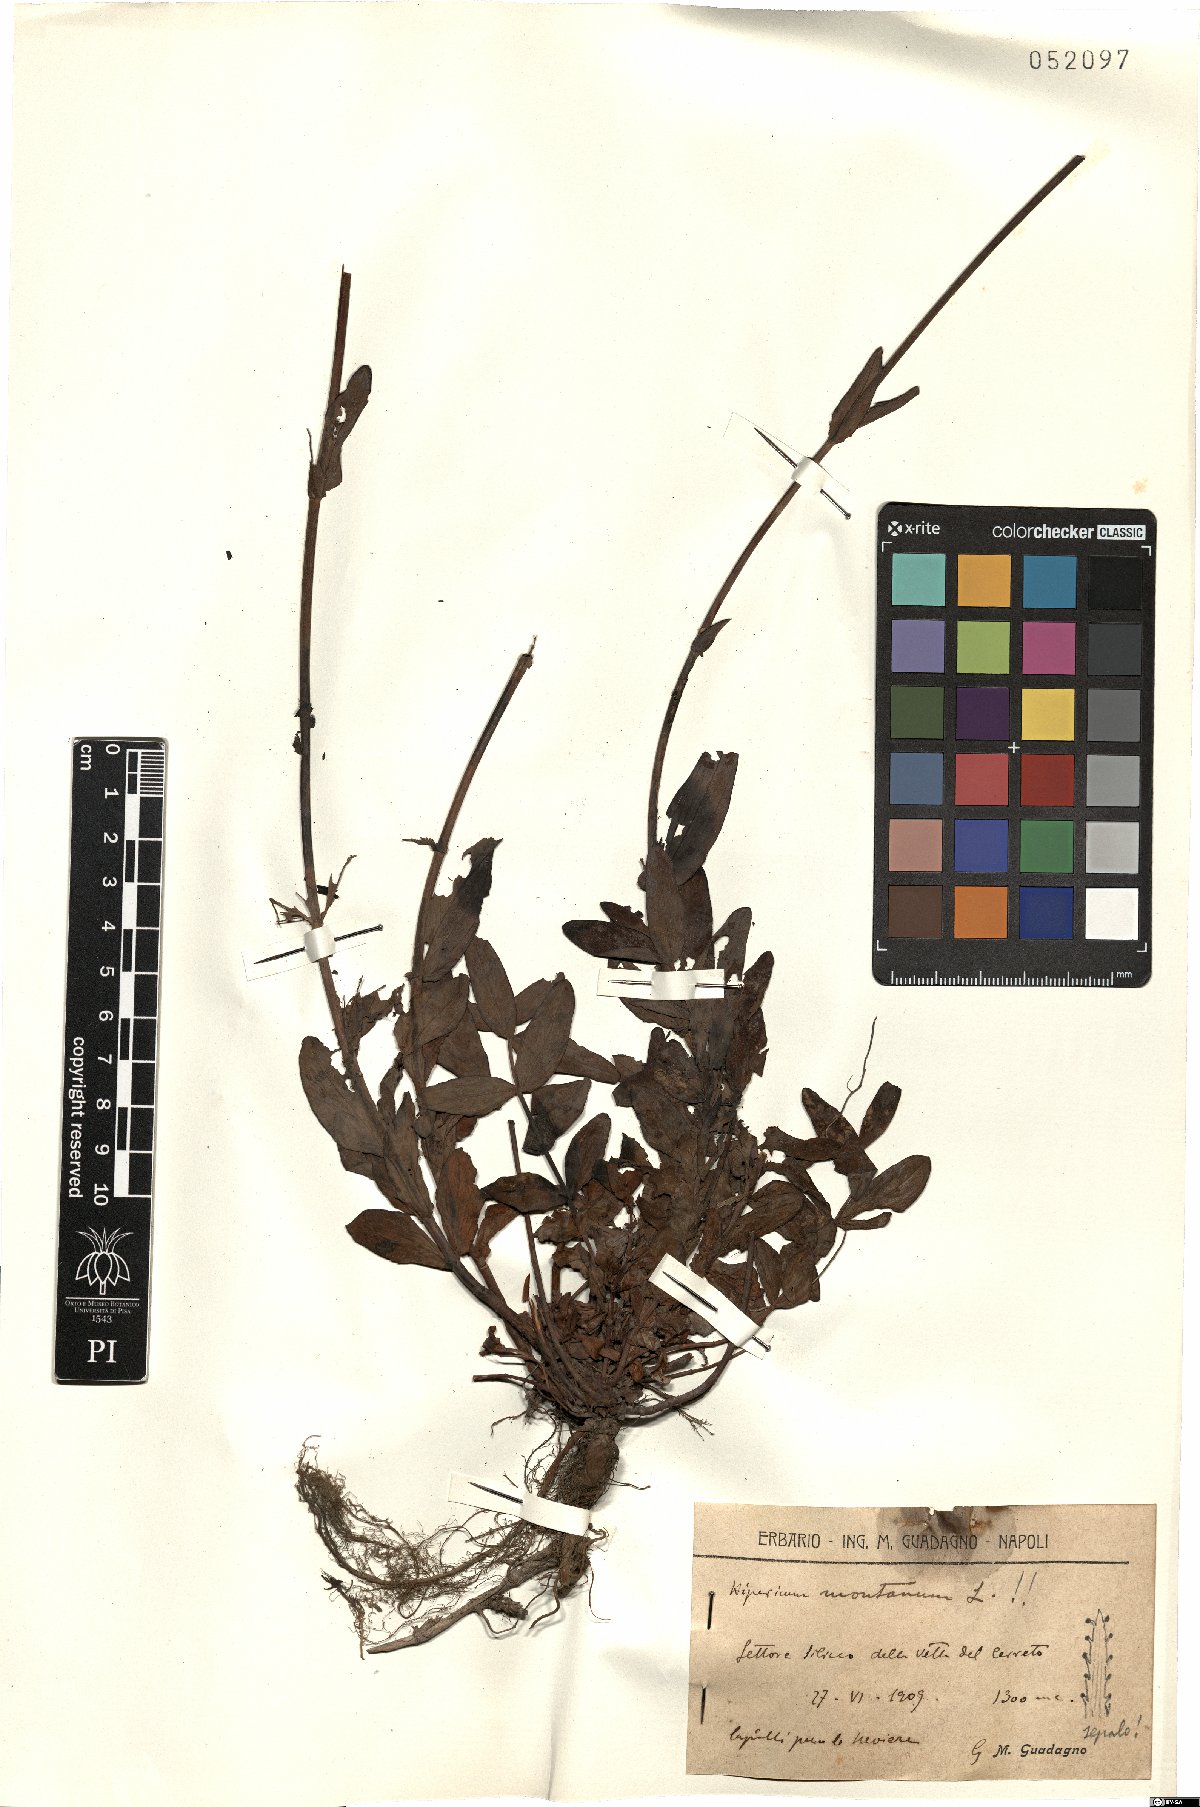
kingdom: Plantae
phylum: Tracheophyta
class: Magnoliopsida
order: Malpighiales
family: Hypericaceae
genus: Hypericum
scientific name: Hypericum montanum
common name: Pale st. john's-wort
